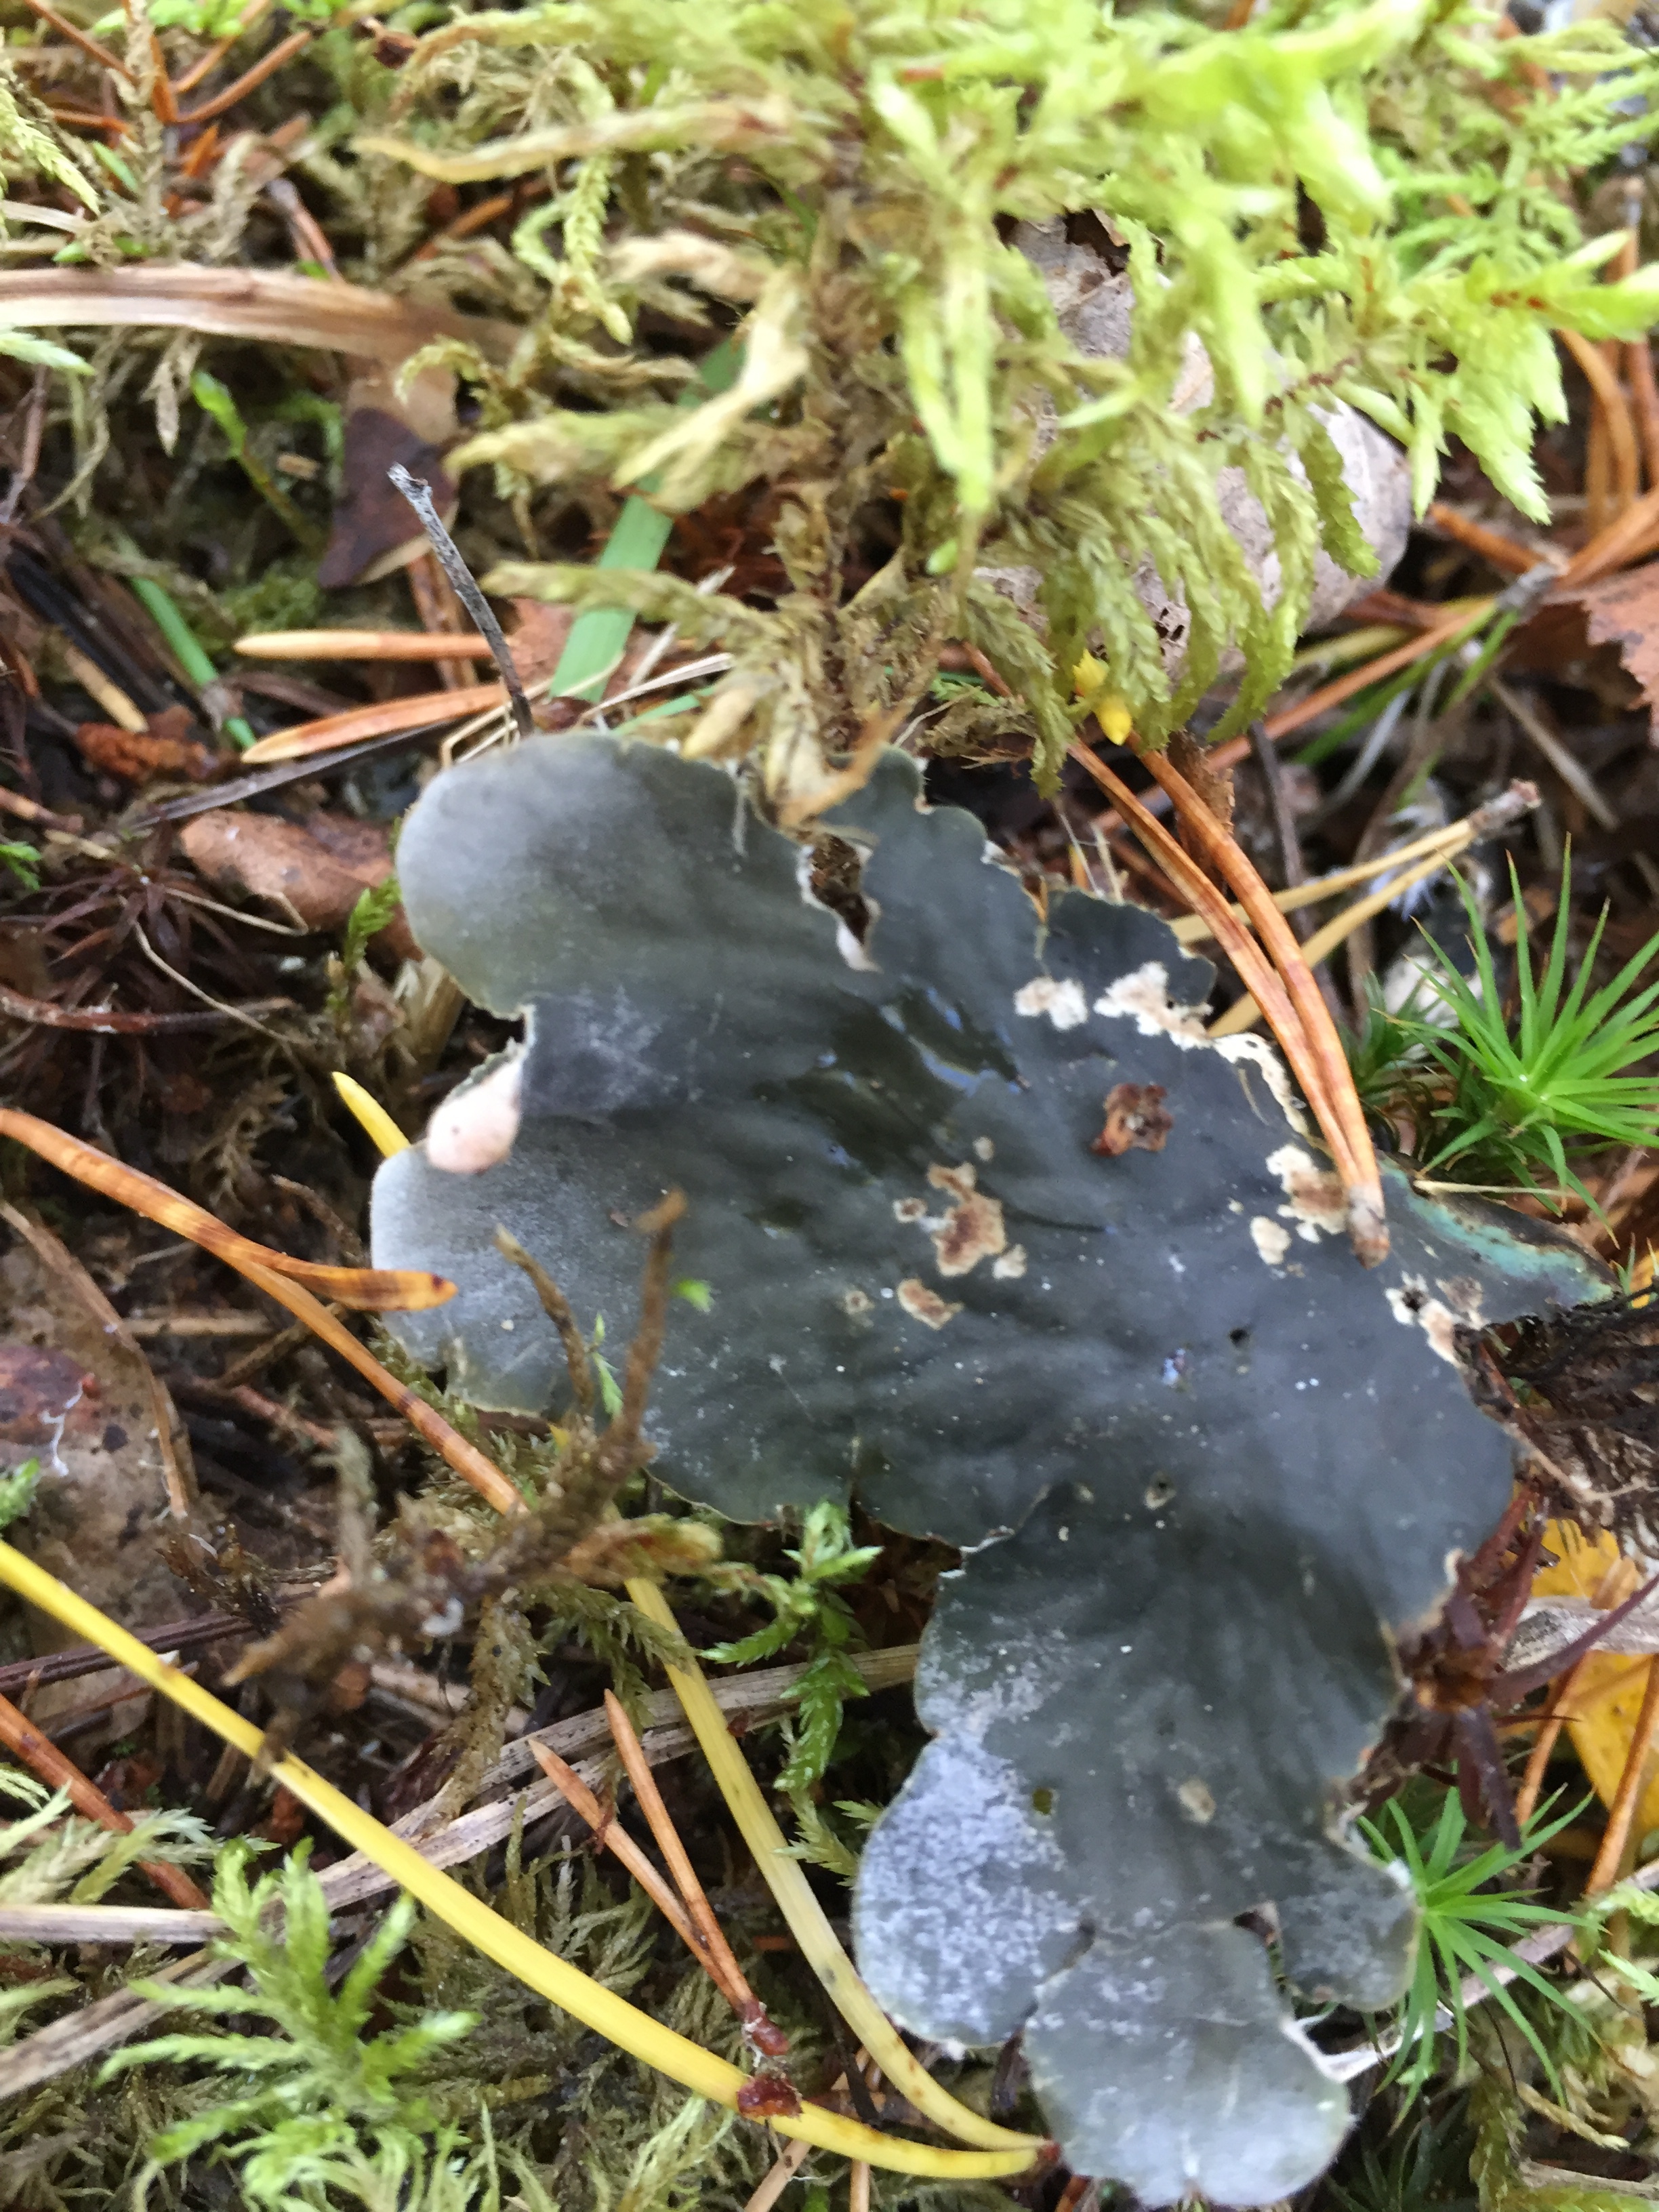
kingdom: Fungi
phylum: Ascomycota
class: Lecanoromycetes
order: Peltigerales
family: Peltigeraceae
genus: Peltigera
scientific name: Peltigera canina
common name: Dog pelt lichen
